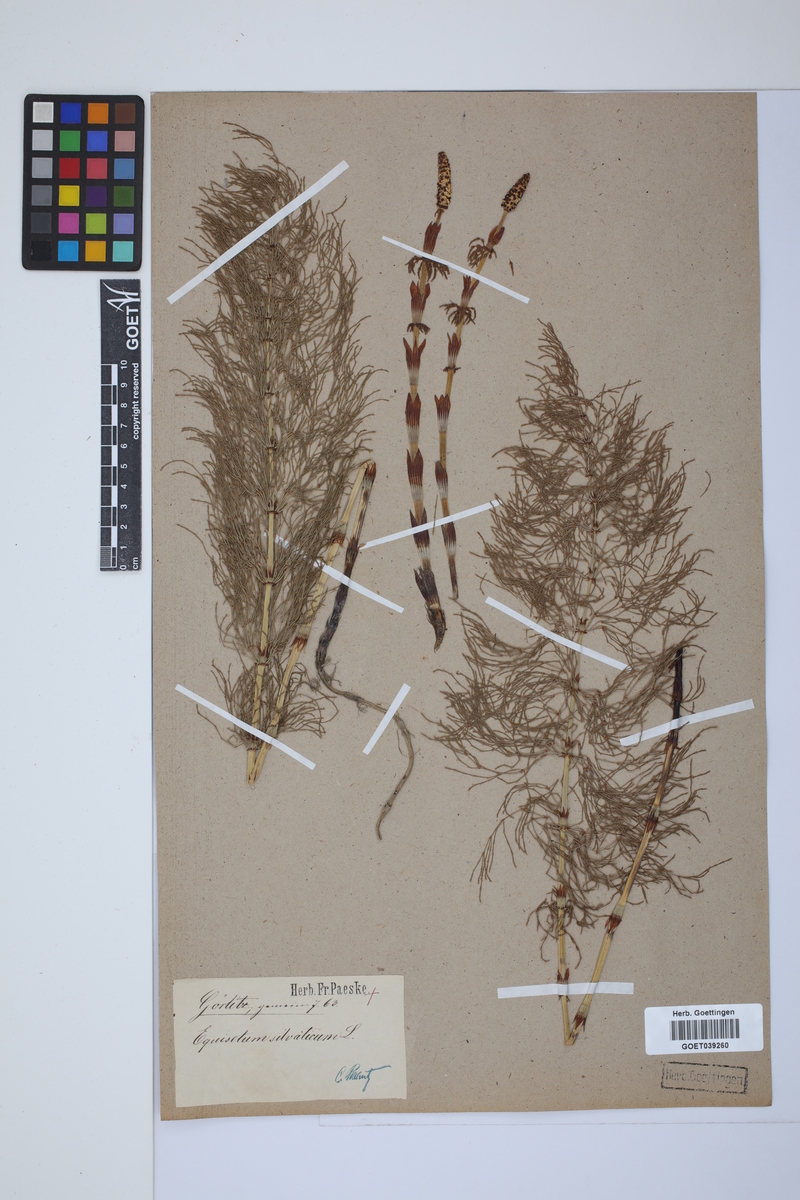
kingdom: Plantae
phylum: Tracheophyta
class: Polypodiopsida
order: Equisetales
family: Equisetaceae
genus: Equisetum
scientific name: Equisetum sylvaticum
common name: Wood horsetail
